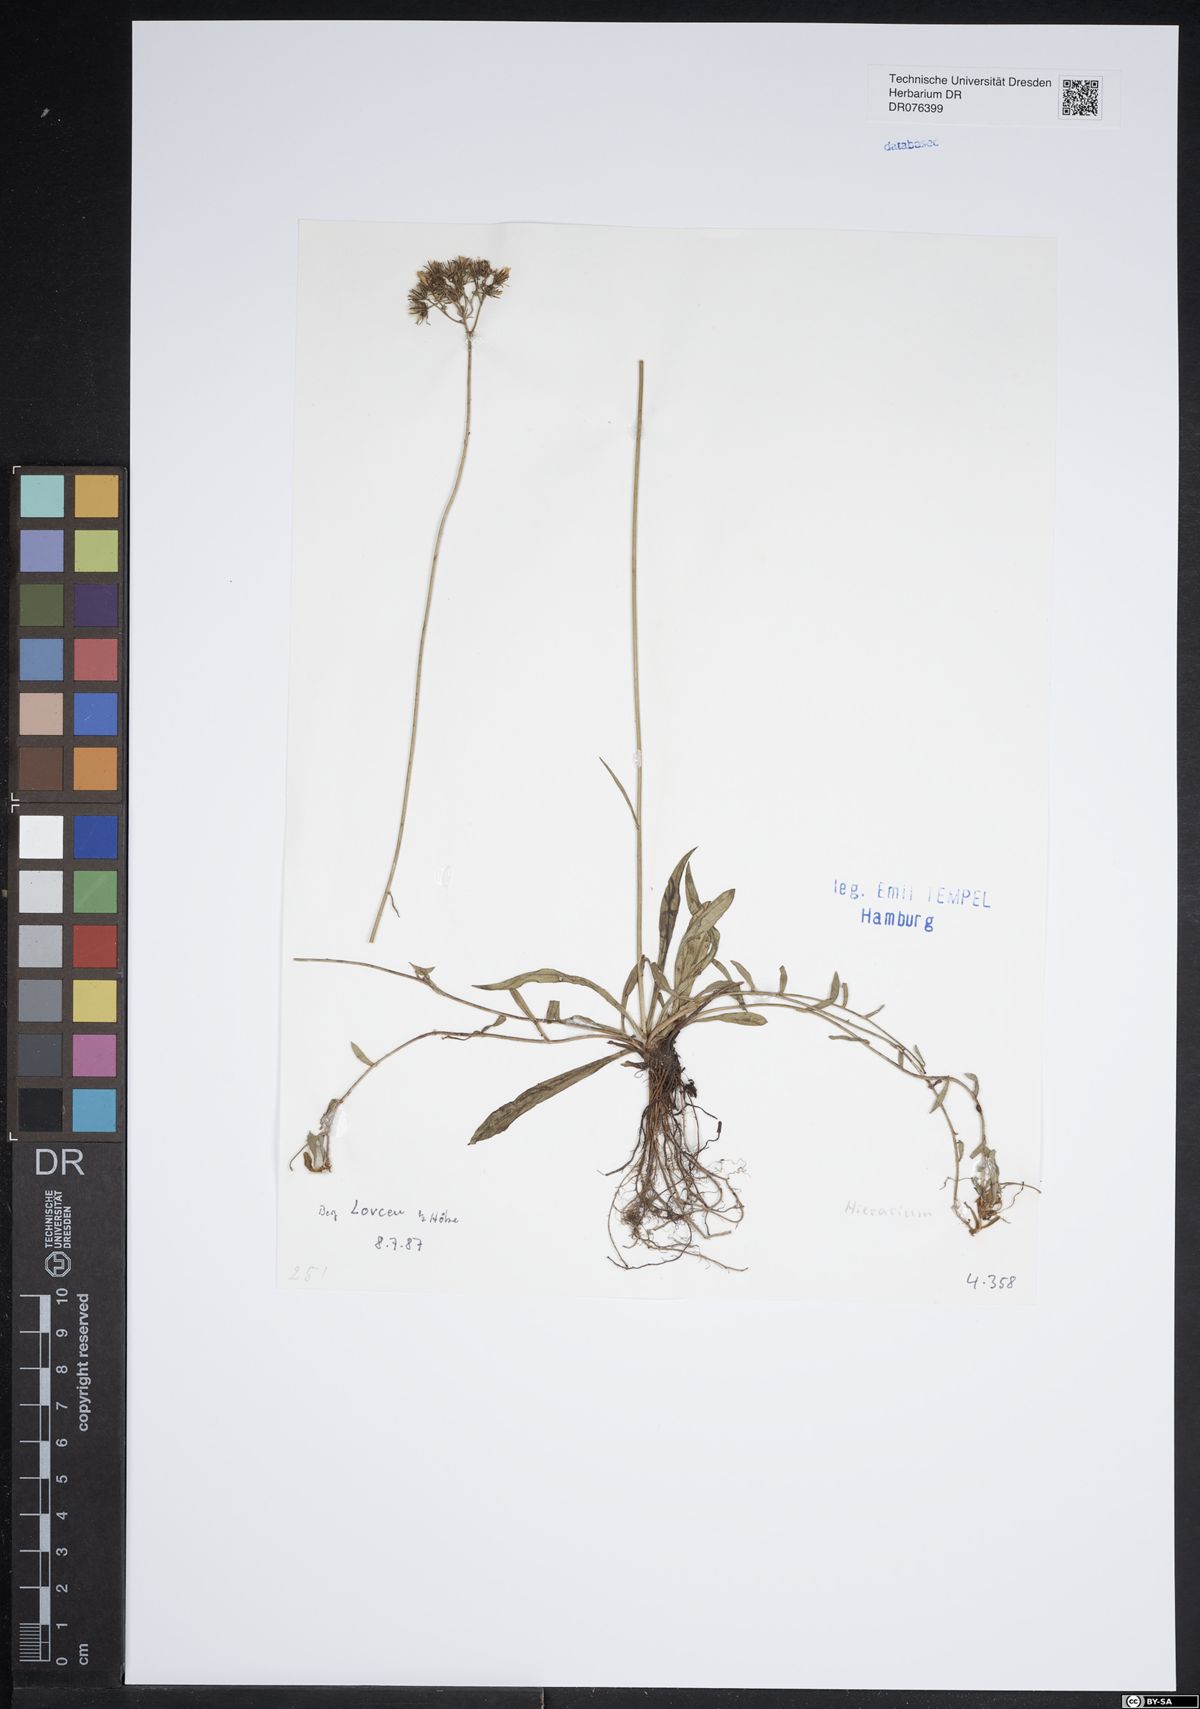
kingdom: Plantae
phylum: Tracheophyta
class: Magnoliopsida
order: Asterales
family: Asteraceae
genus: Hieracium
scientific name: Hieracium
